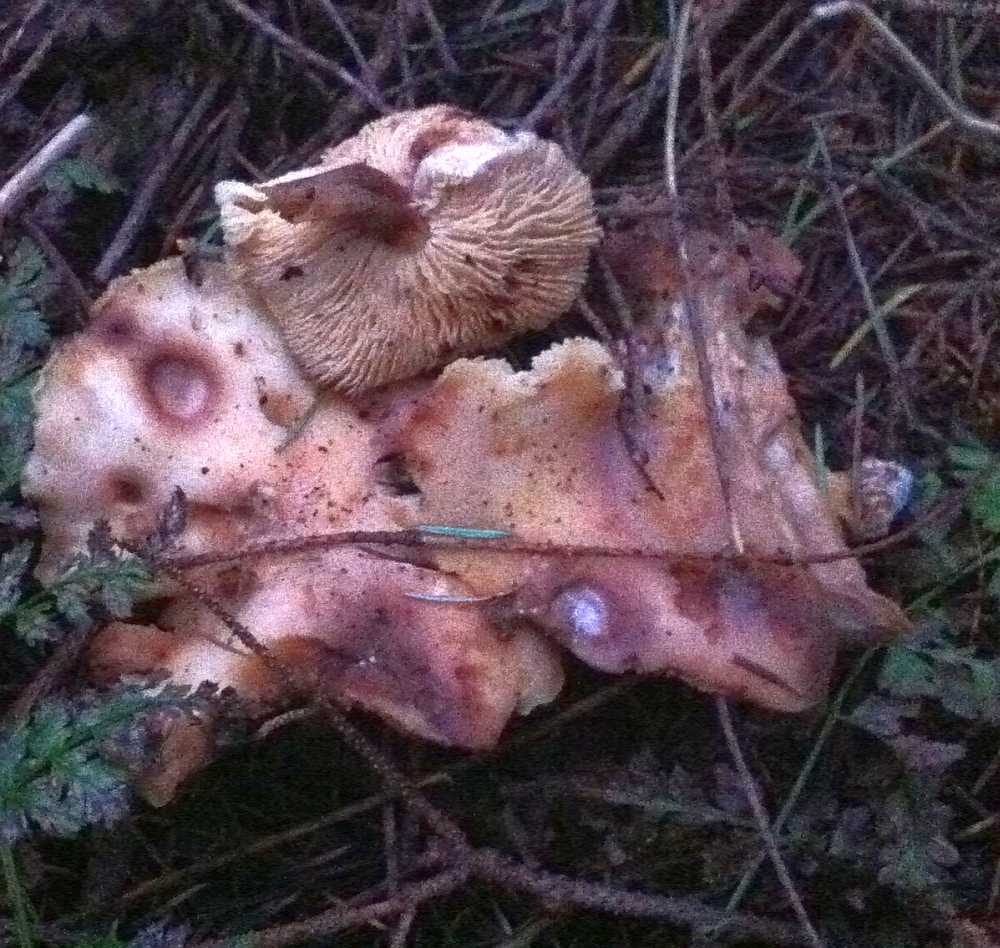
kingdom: Fungi
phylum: Basidiomycota
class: Agaricomycetes
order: Agaricales
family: Omphalotaceae
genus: Rhodocollybia
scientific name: Rhodocollybia maculata
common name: plettet fladhat
